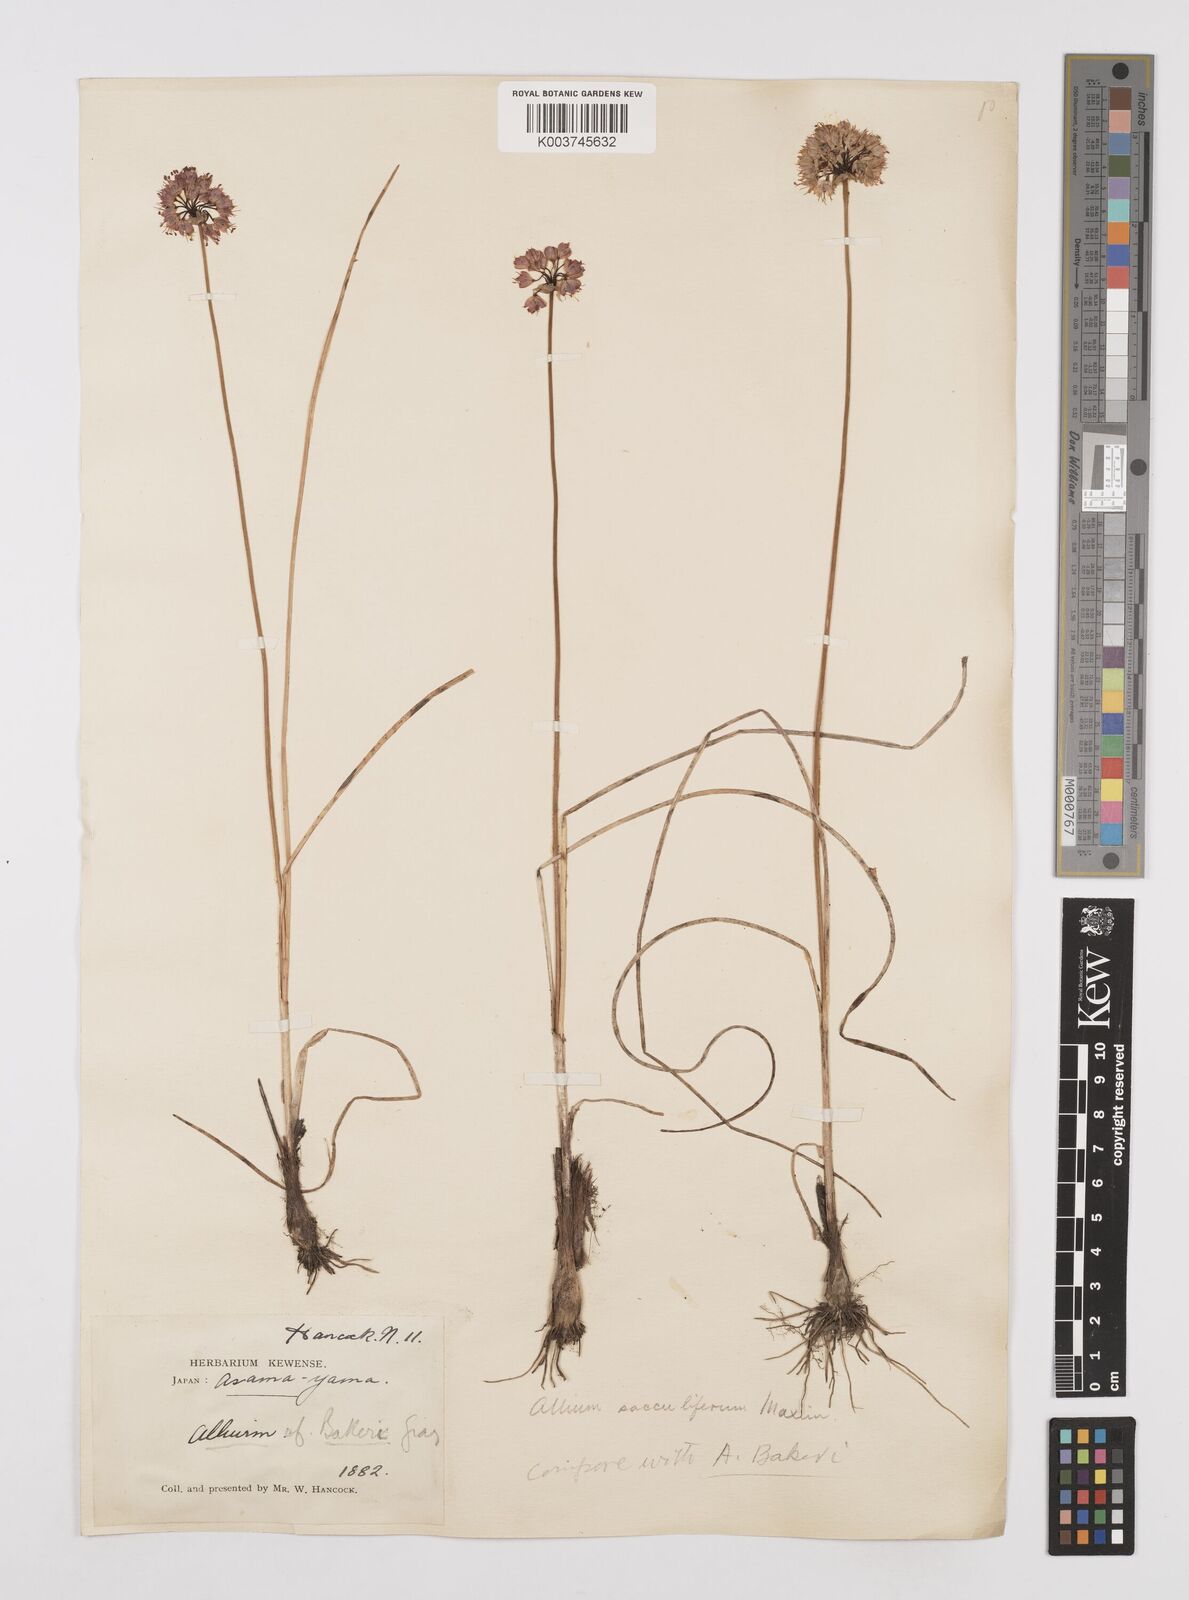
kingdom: Plantae
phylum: Tracheophyta
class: Liliopsida
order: Asparagales
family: Amaryllidaceae
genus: Allium
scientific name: Allium sacculiferum
